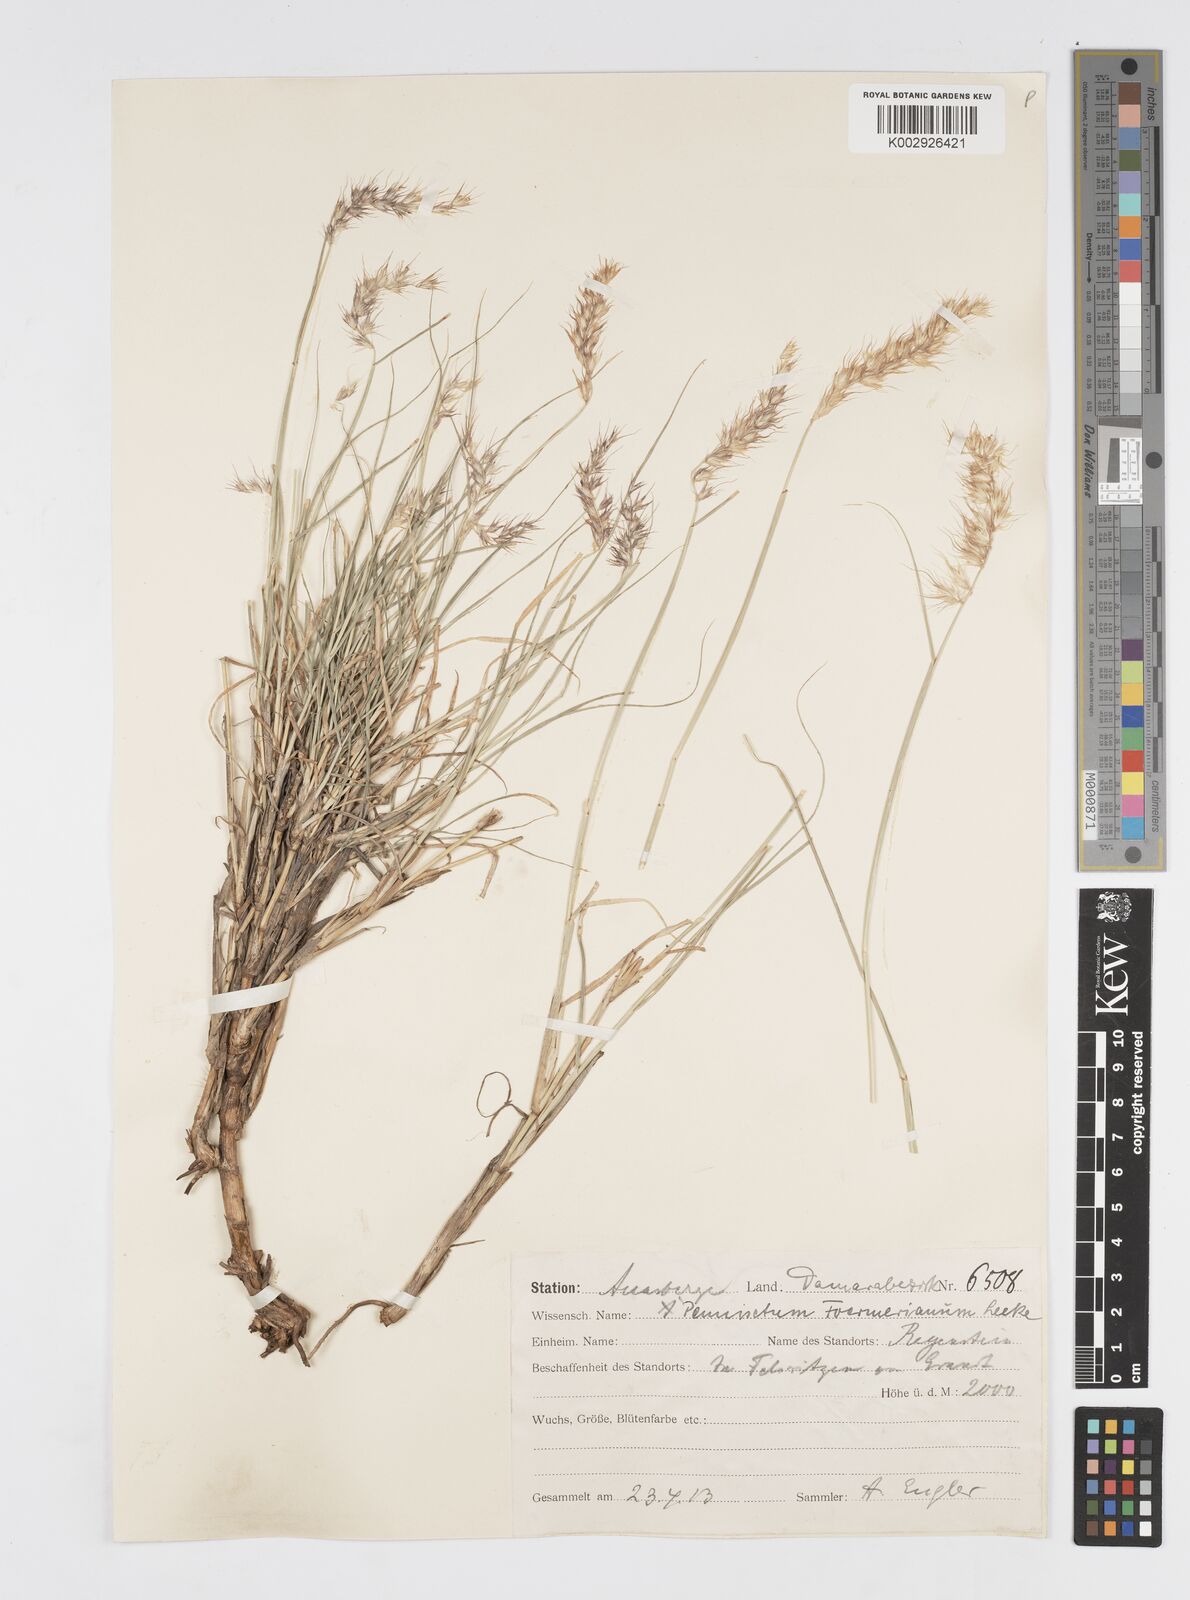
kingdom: Plantae
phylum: Tracheophyta
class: Liliopsida
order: Poales
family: Poaceae
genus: Cenchrus
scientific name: Cenchrus foermerianus
